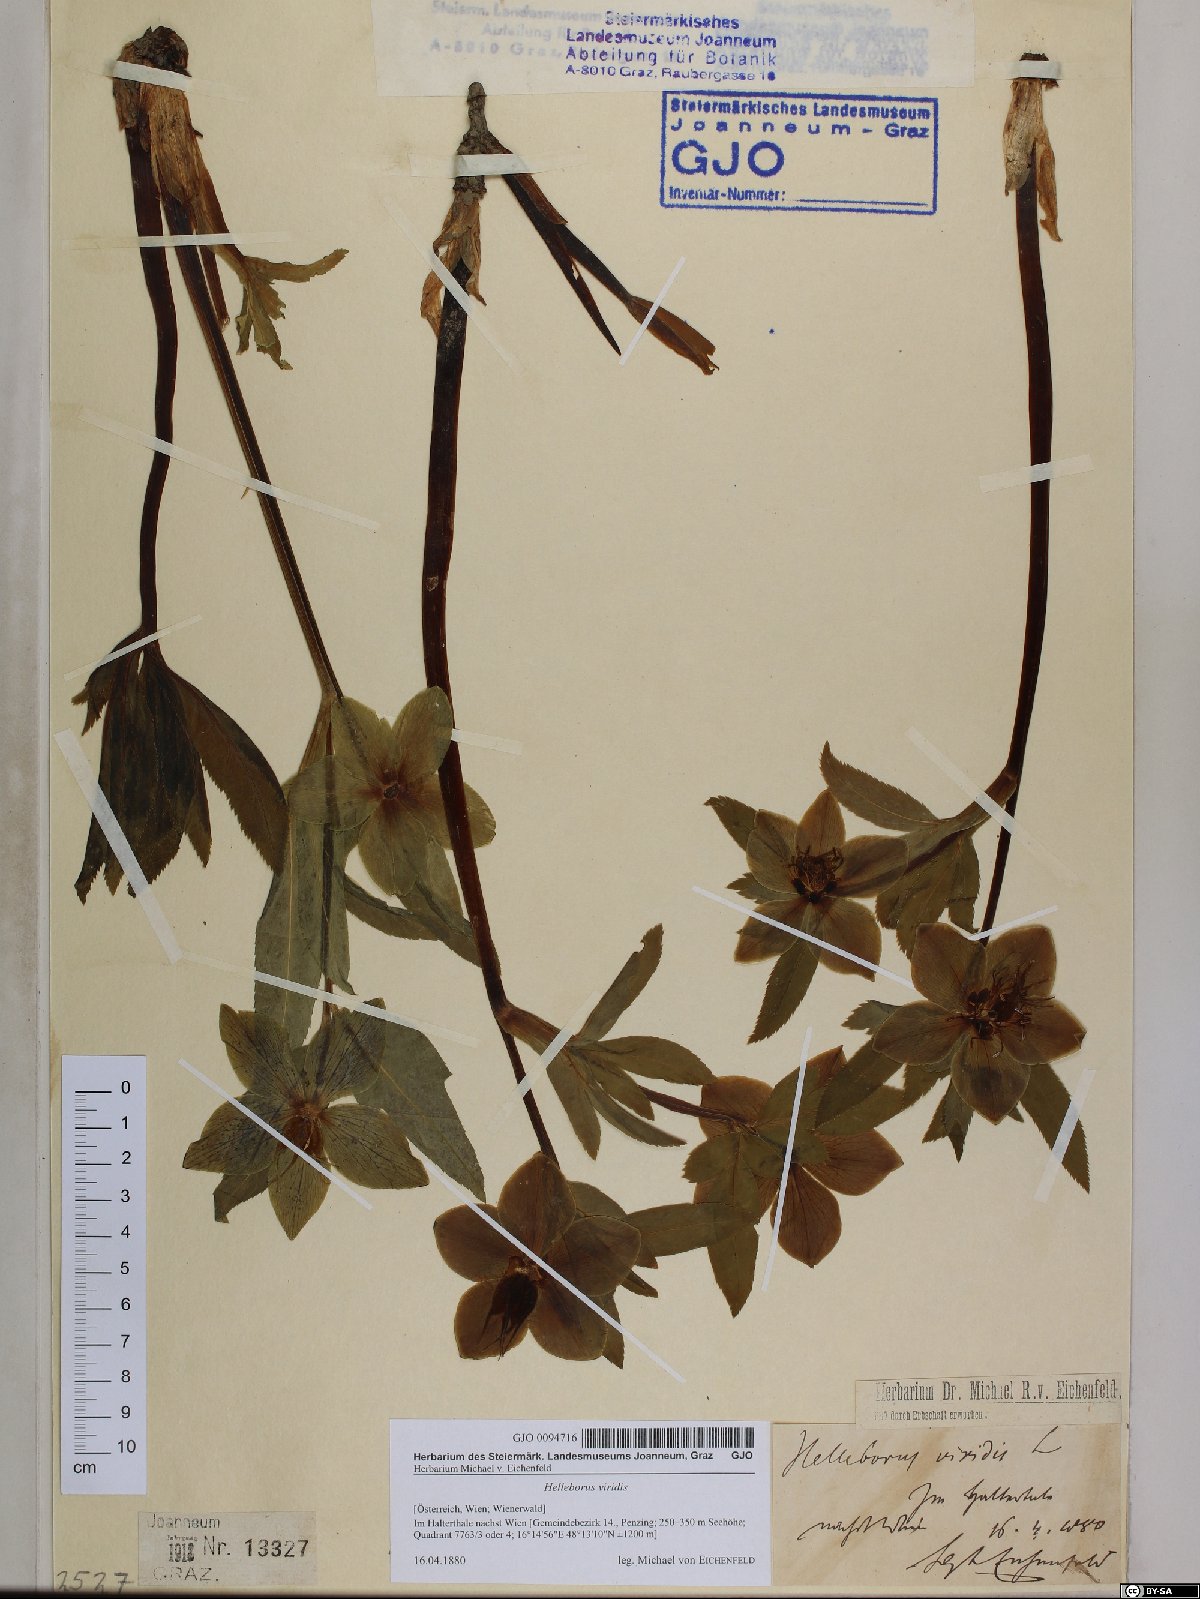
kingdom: Plantae
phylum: Tracheophyta
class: Magnoliopsida
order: Ranunculales
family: Ranunculaceae
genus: Helleborus
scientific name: Helleborus viridis
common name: Green hellebore
